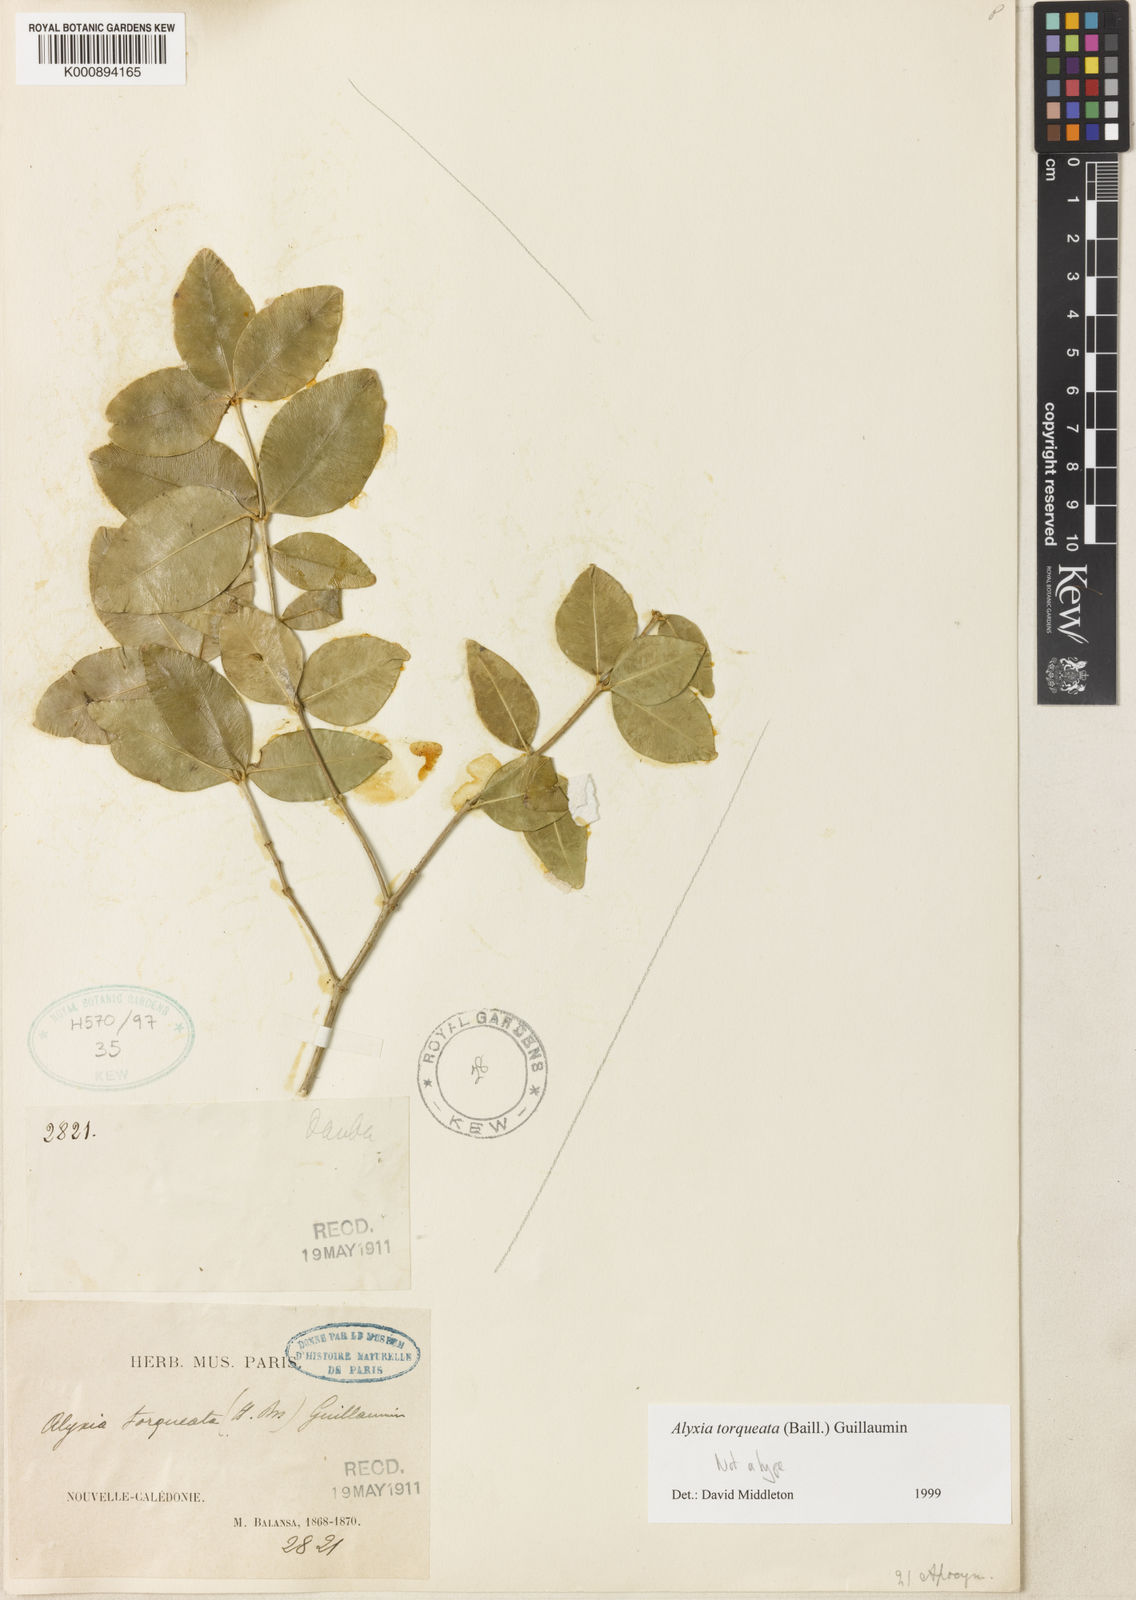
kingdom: Plantae
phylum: Tracheophyta
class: Magnoliopsida
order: Gentianales
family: Apocynaceae
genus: Alyxia
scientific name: Alyxia
